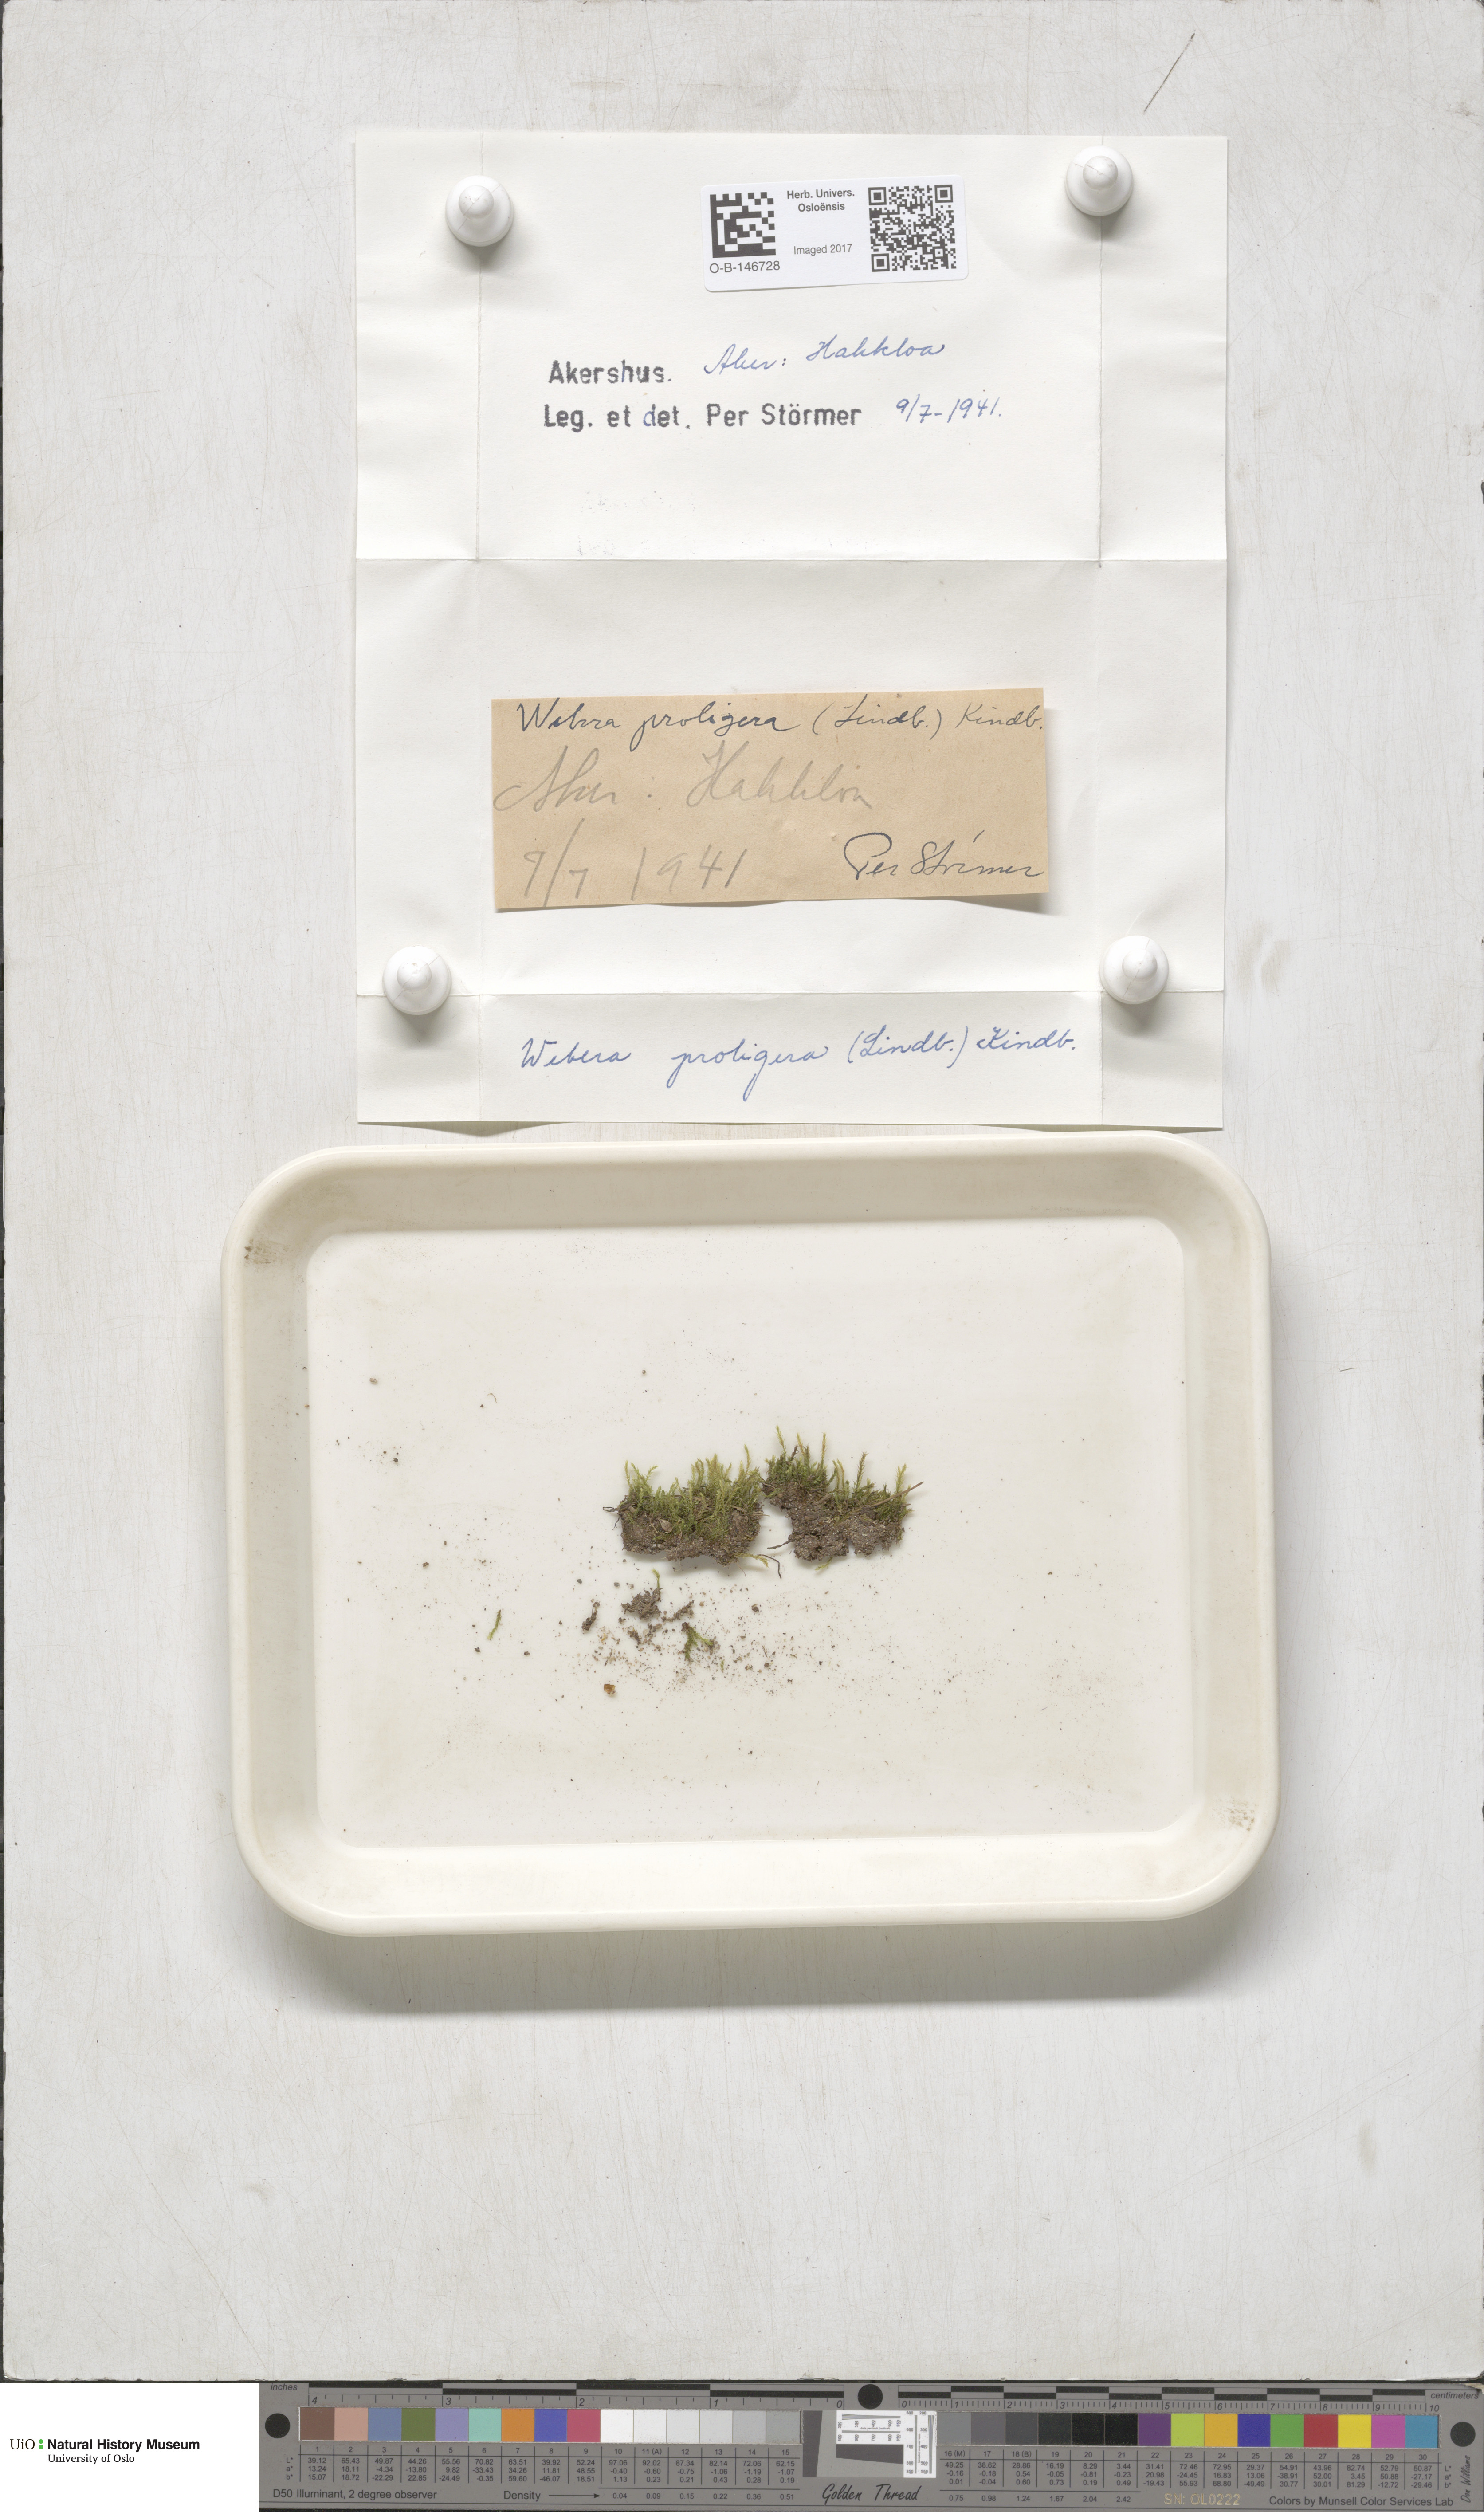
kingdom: Plantae
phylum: Bryophyta
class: Bryopsida
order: Bryales
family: Mniaceae
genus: Pohlia
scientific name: Pohlia proligera
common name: Cottony nodding moss
